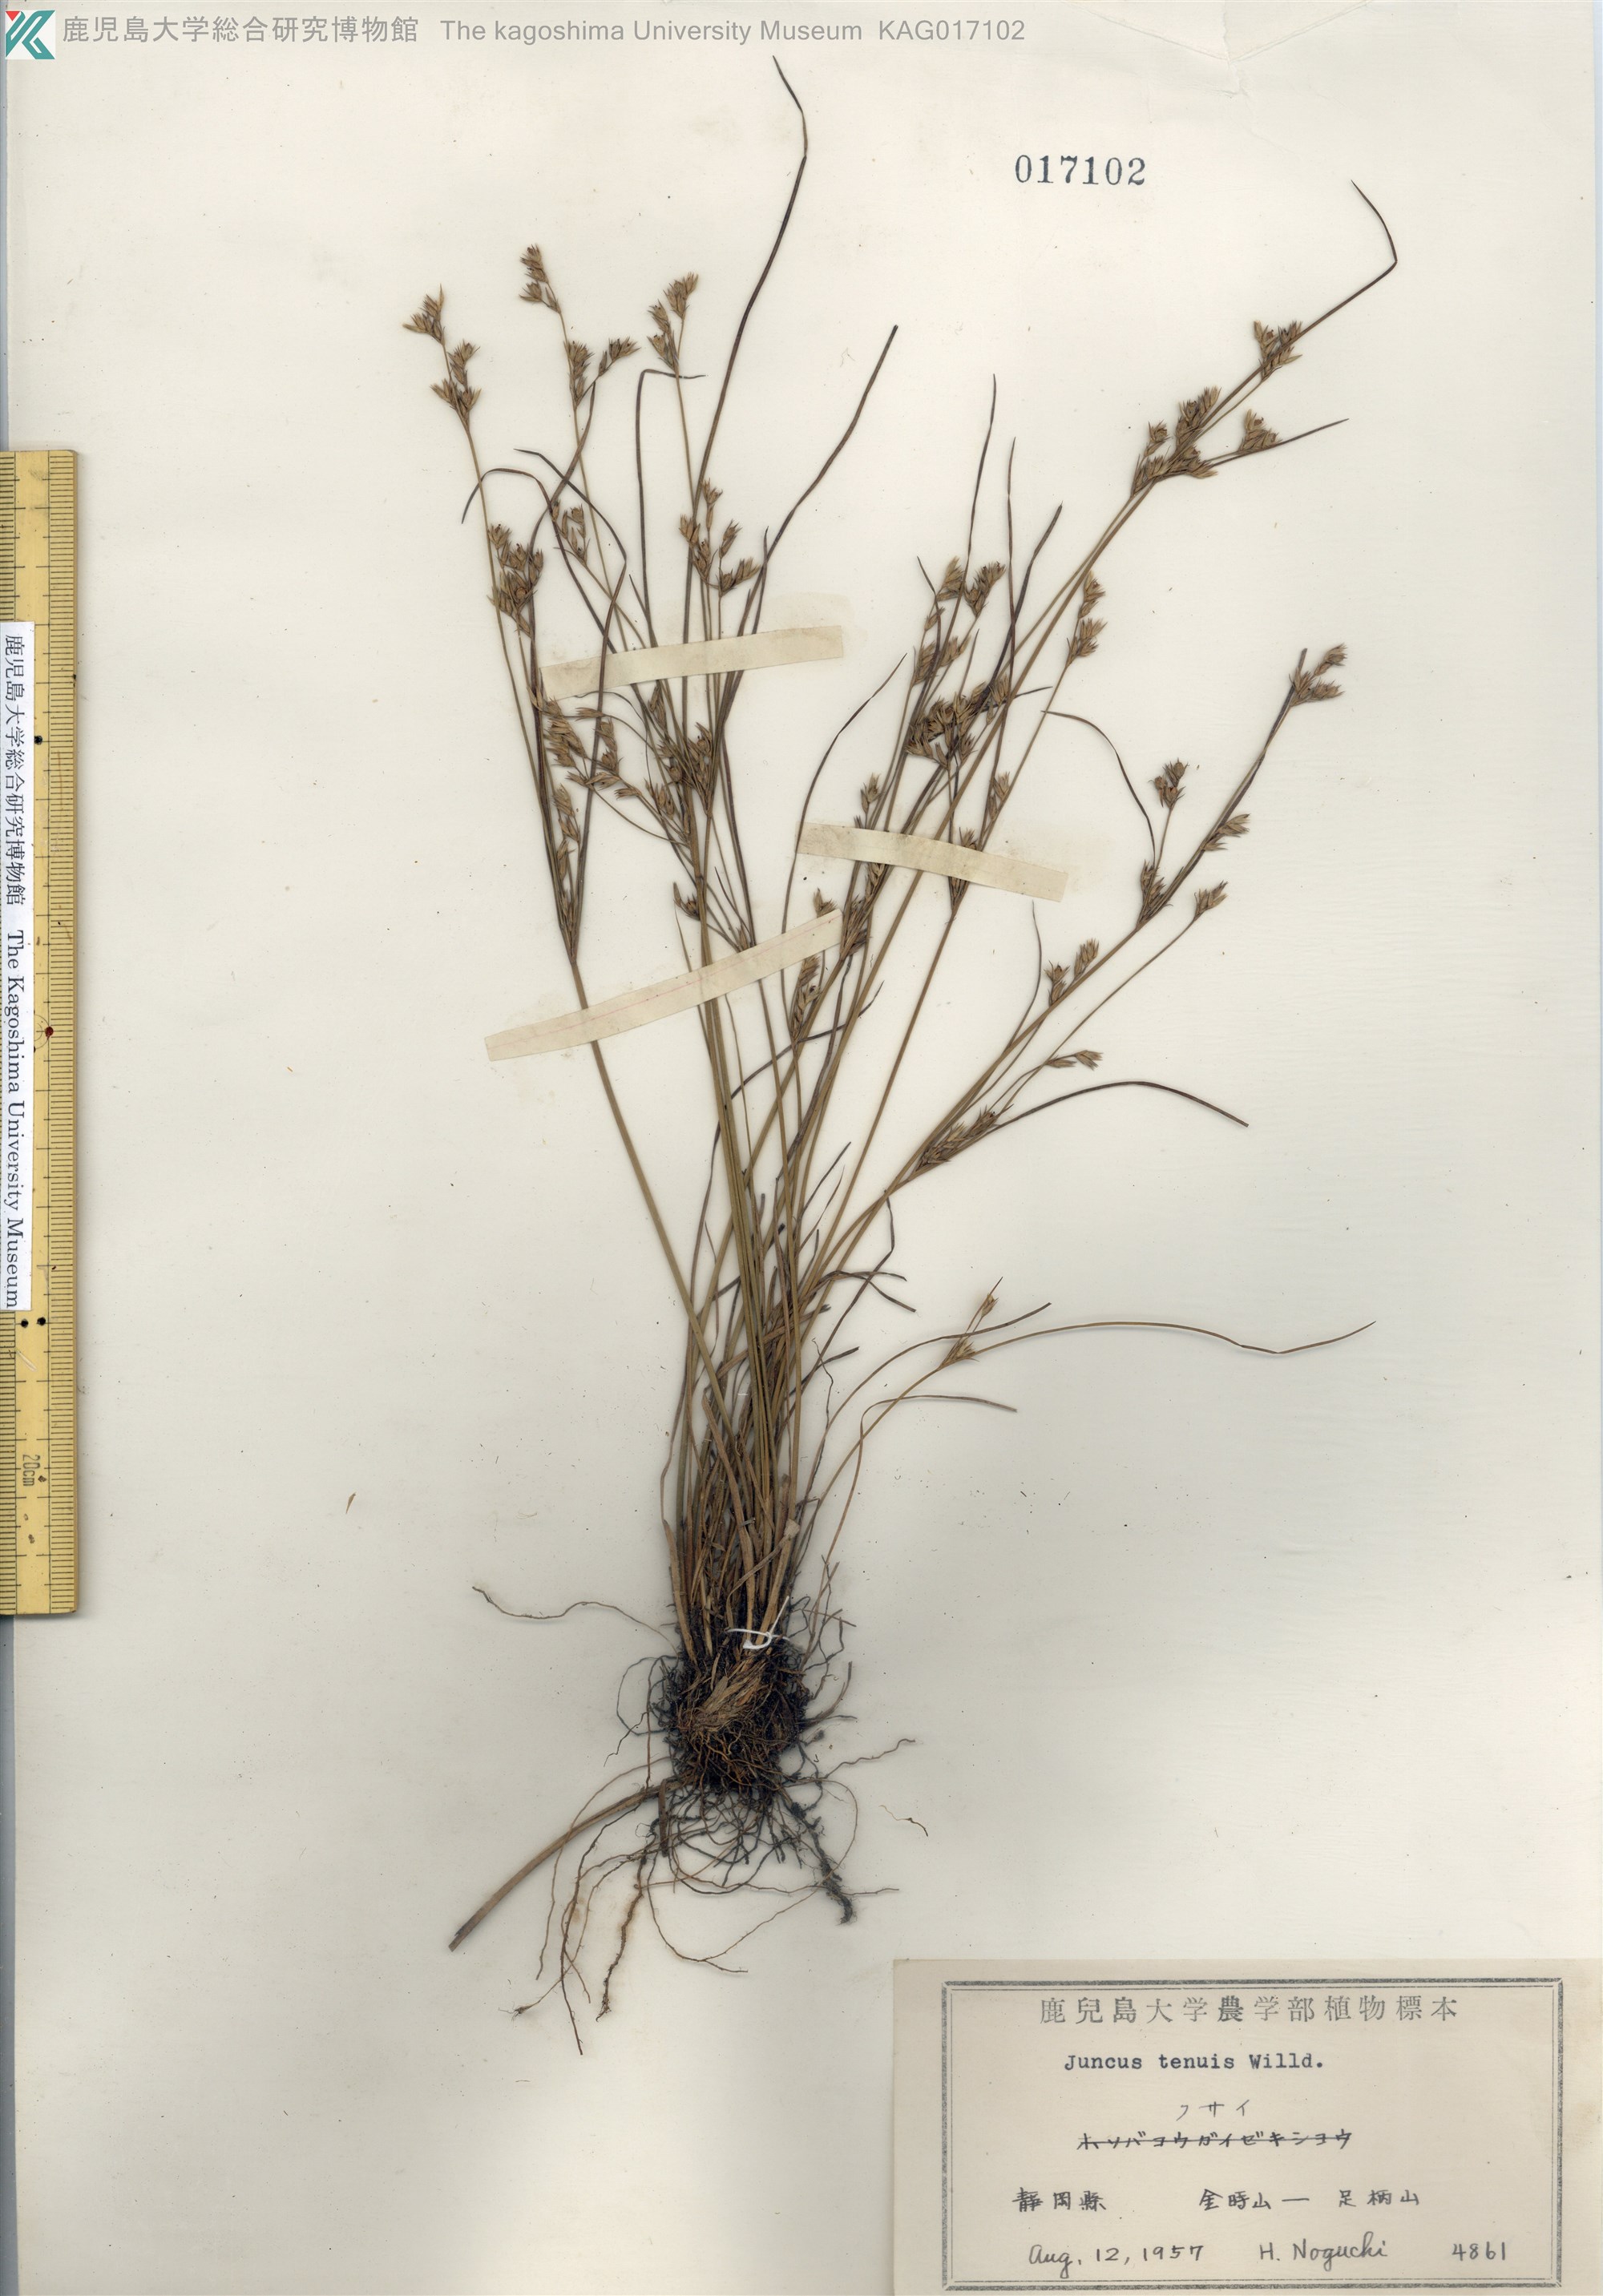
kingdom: Plantae
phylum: Tracheophyta
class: Liliopsida
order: Poales
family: Juncaceae
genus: Juncus
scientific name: Juncus tenuis
